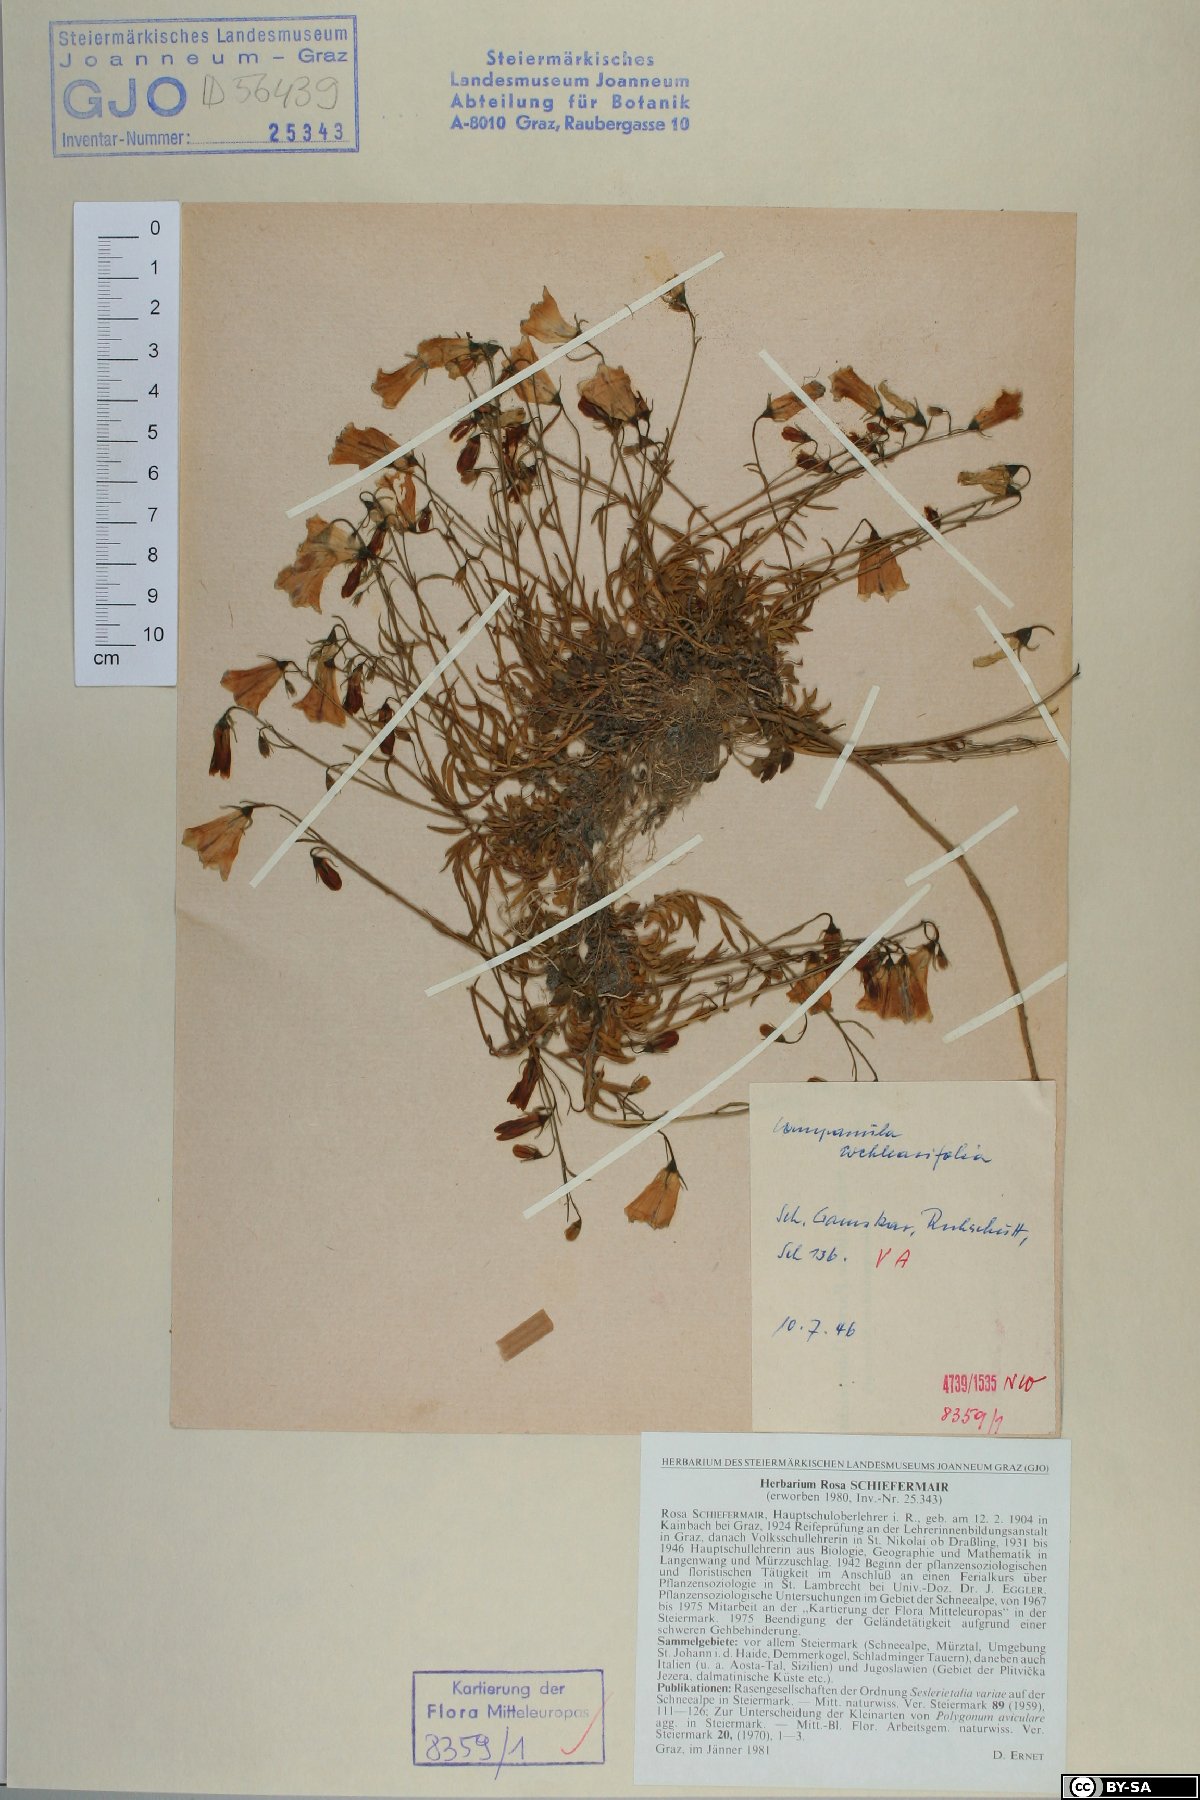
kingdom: Plantae
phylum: Tracheophyta
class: Magnoliopsida
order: Asterales
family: Campanulaceae
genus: Campanula
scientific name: Campanula cochleariifolia
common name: Fairies'-thimbles
